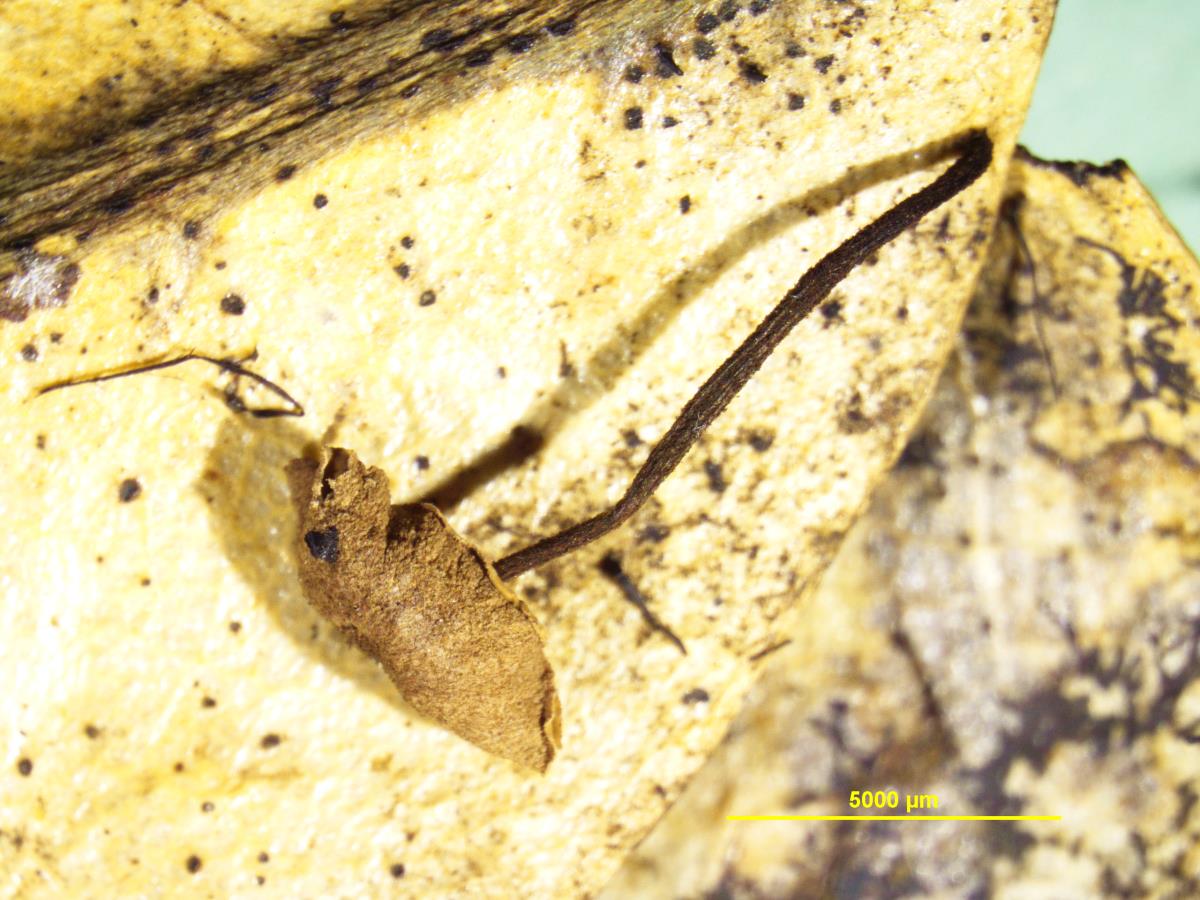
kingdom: Fungi
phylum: Basidiomycota
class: Agaricomycetes
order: Agaricales
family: Marasmiaceae
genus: Marasmius
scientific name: Marasmius otagensis
